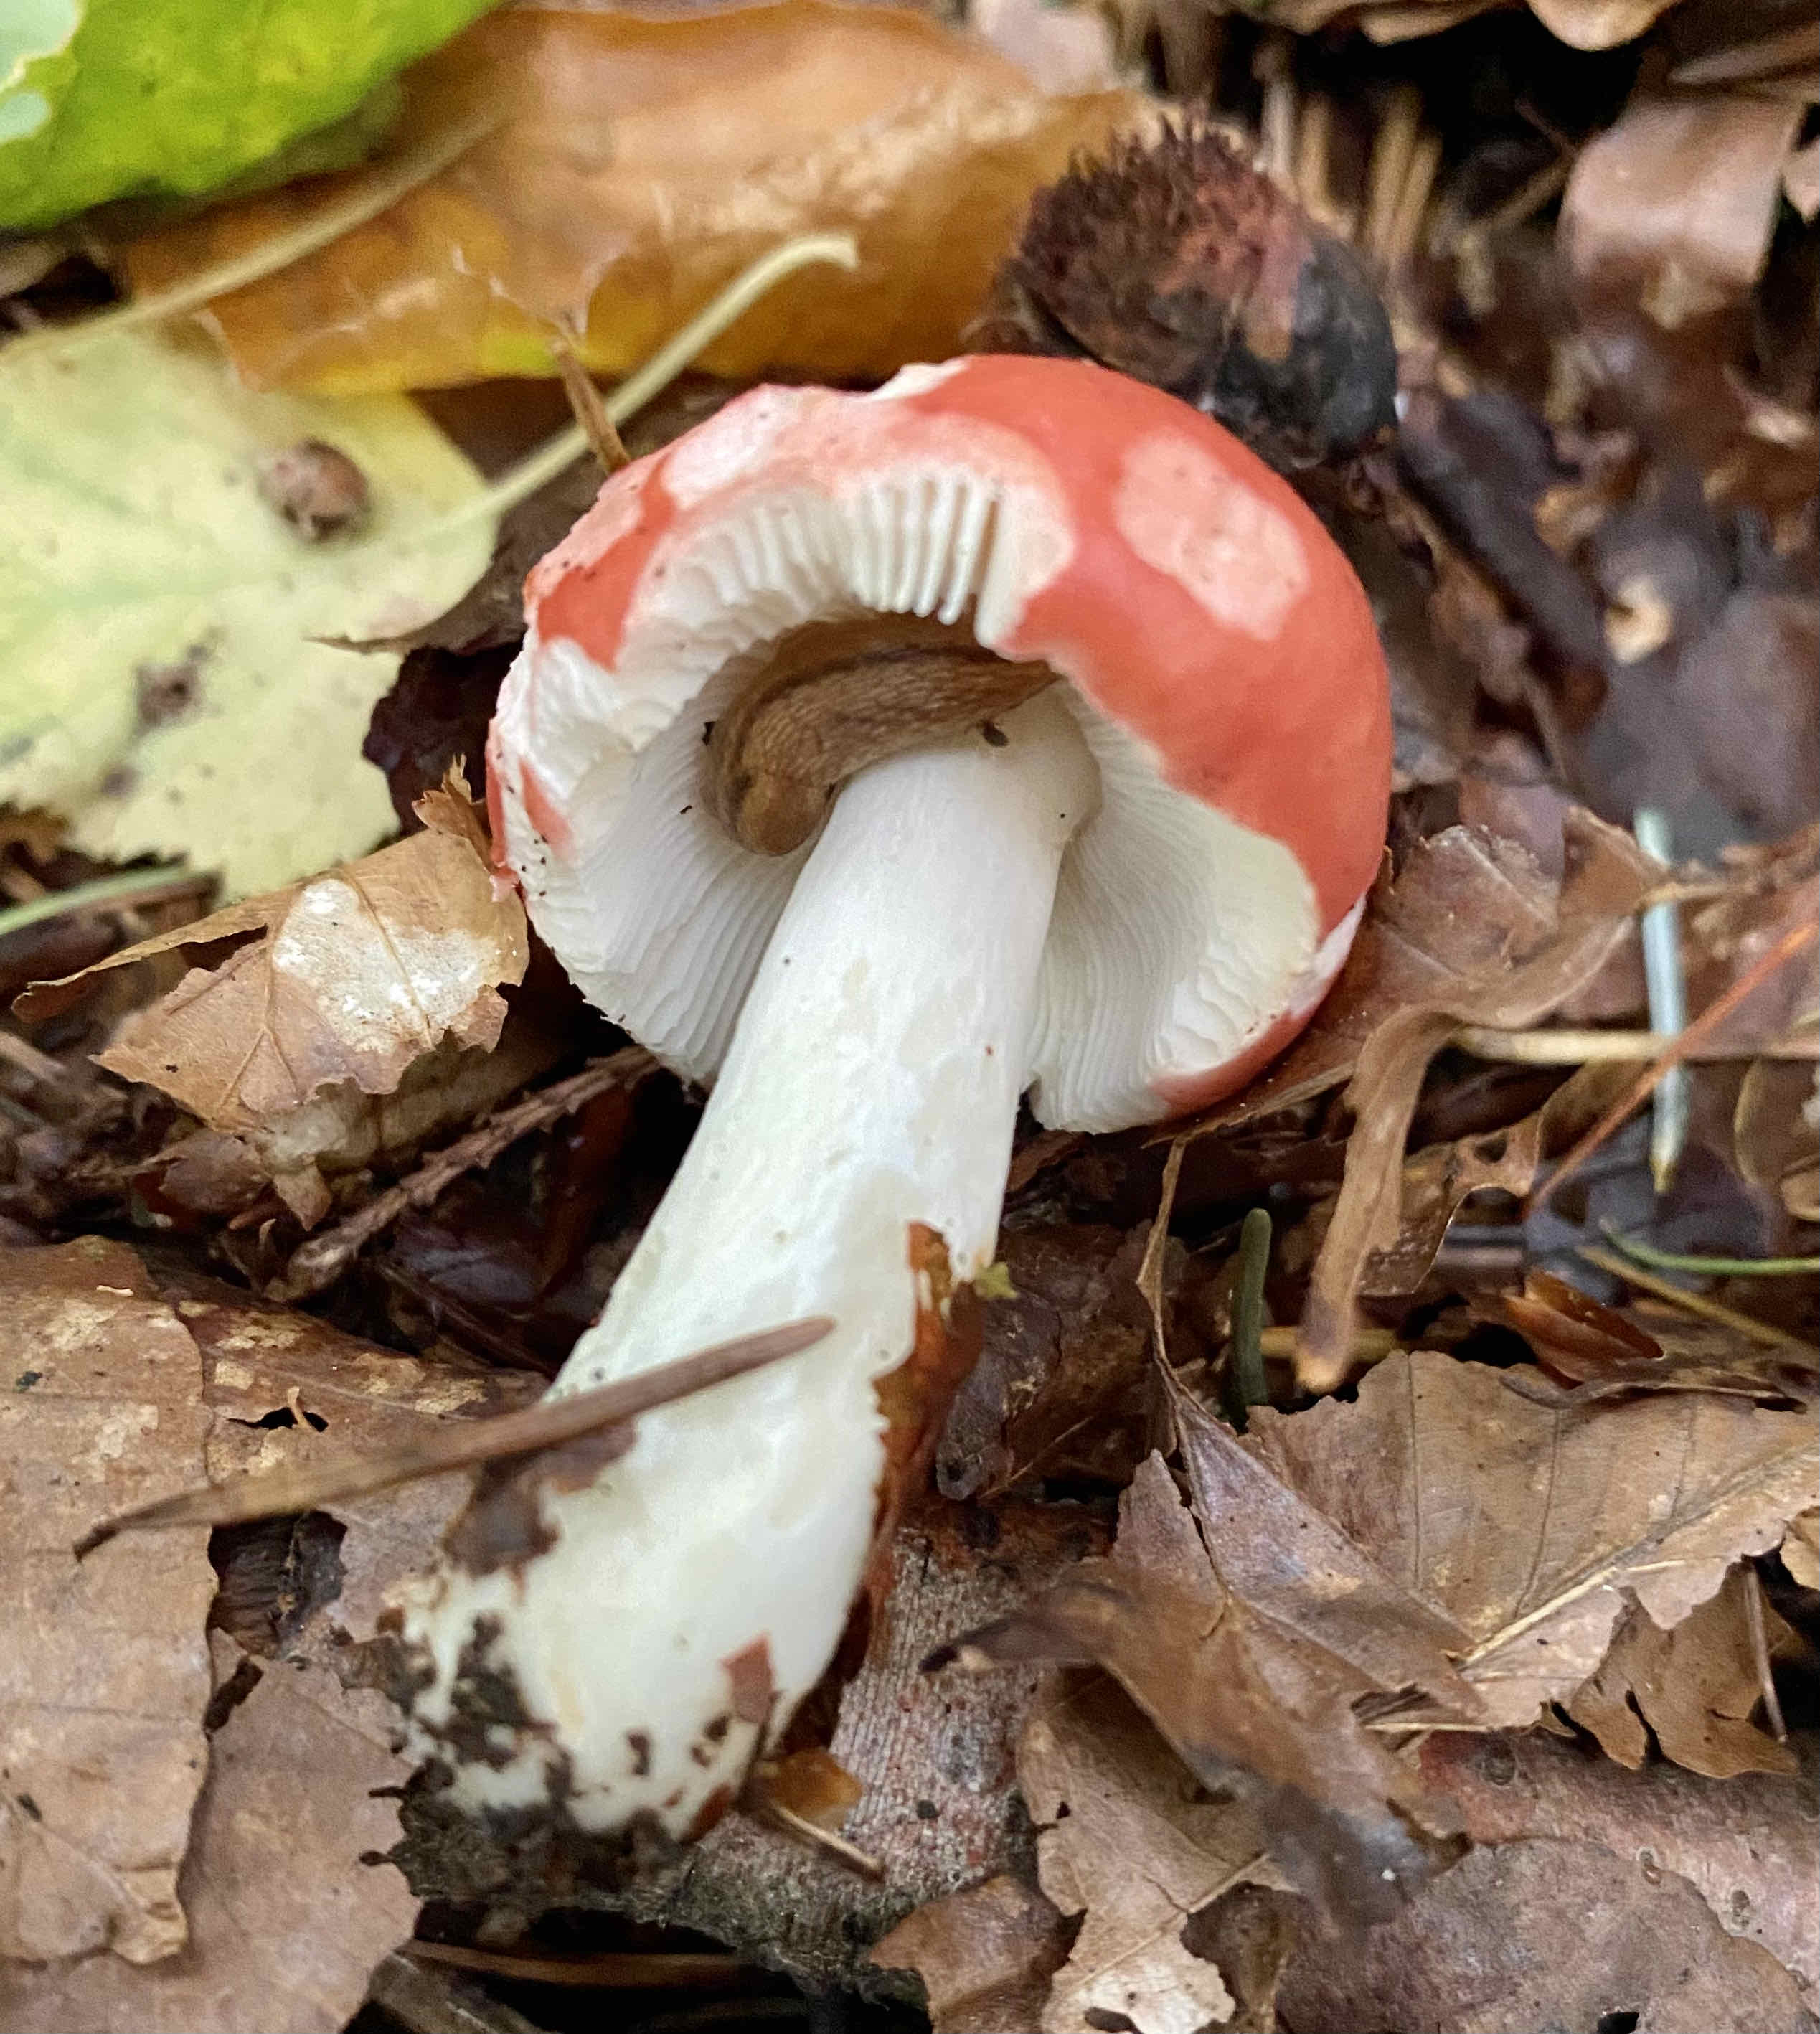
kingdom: Fungi
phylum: Basidiomycota
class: Agaricomycetes
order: Russulales
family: Russulaceae
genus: Russula
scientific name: Russula nobilis
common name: lille gift-skørhat
